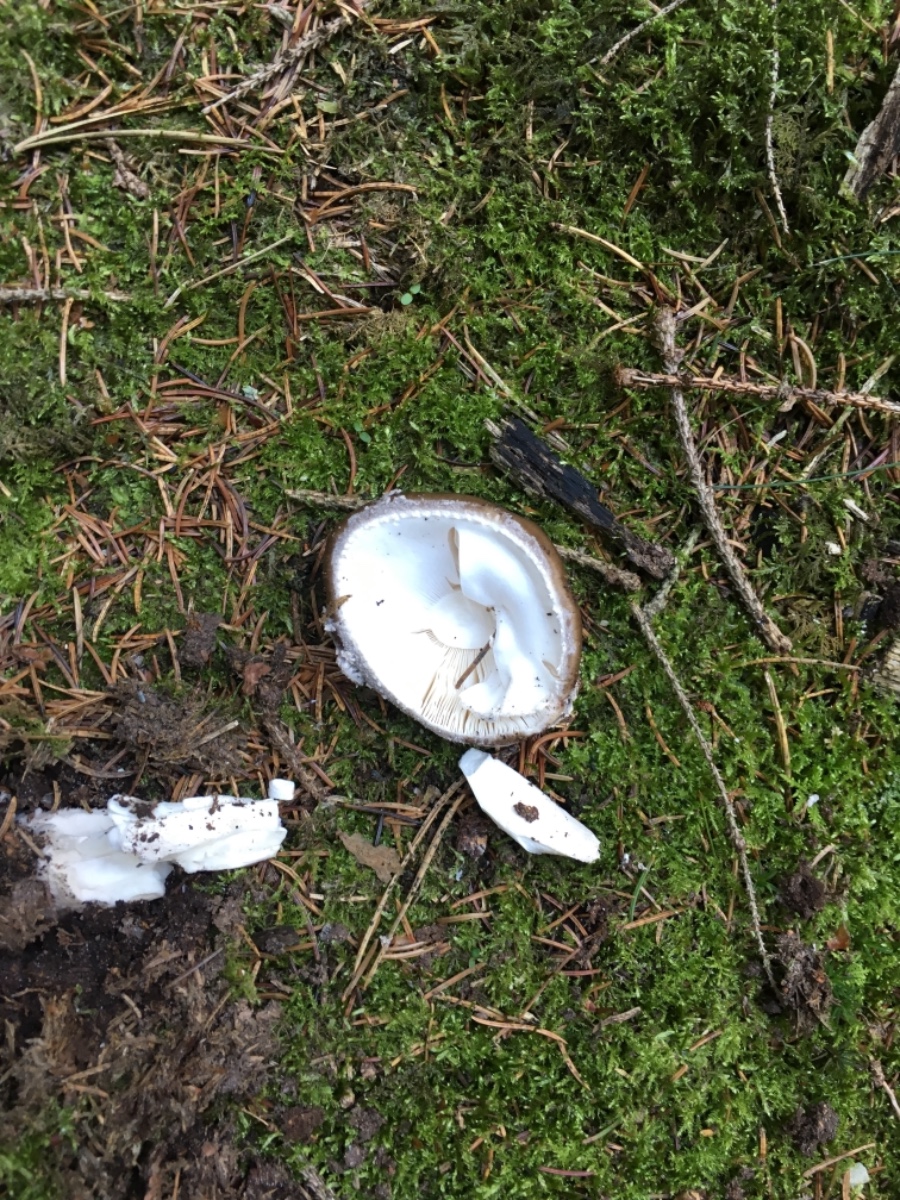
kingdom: Fungi
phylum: Basidiomycota
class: Agaricomycetes
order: Agaricales
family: Amanitaceae
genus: Amanita
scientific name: Amanita
